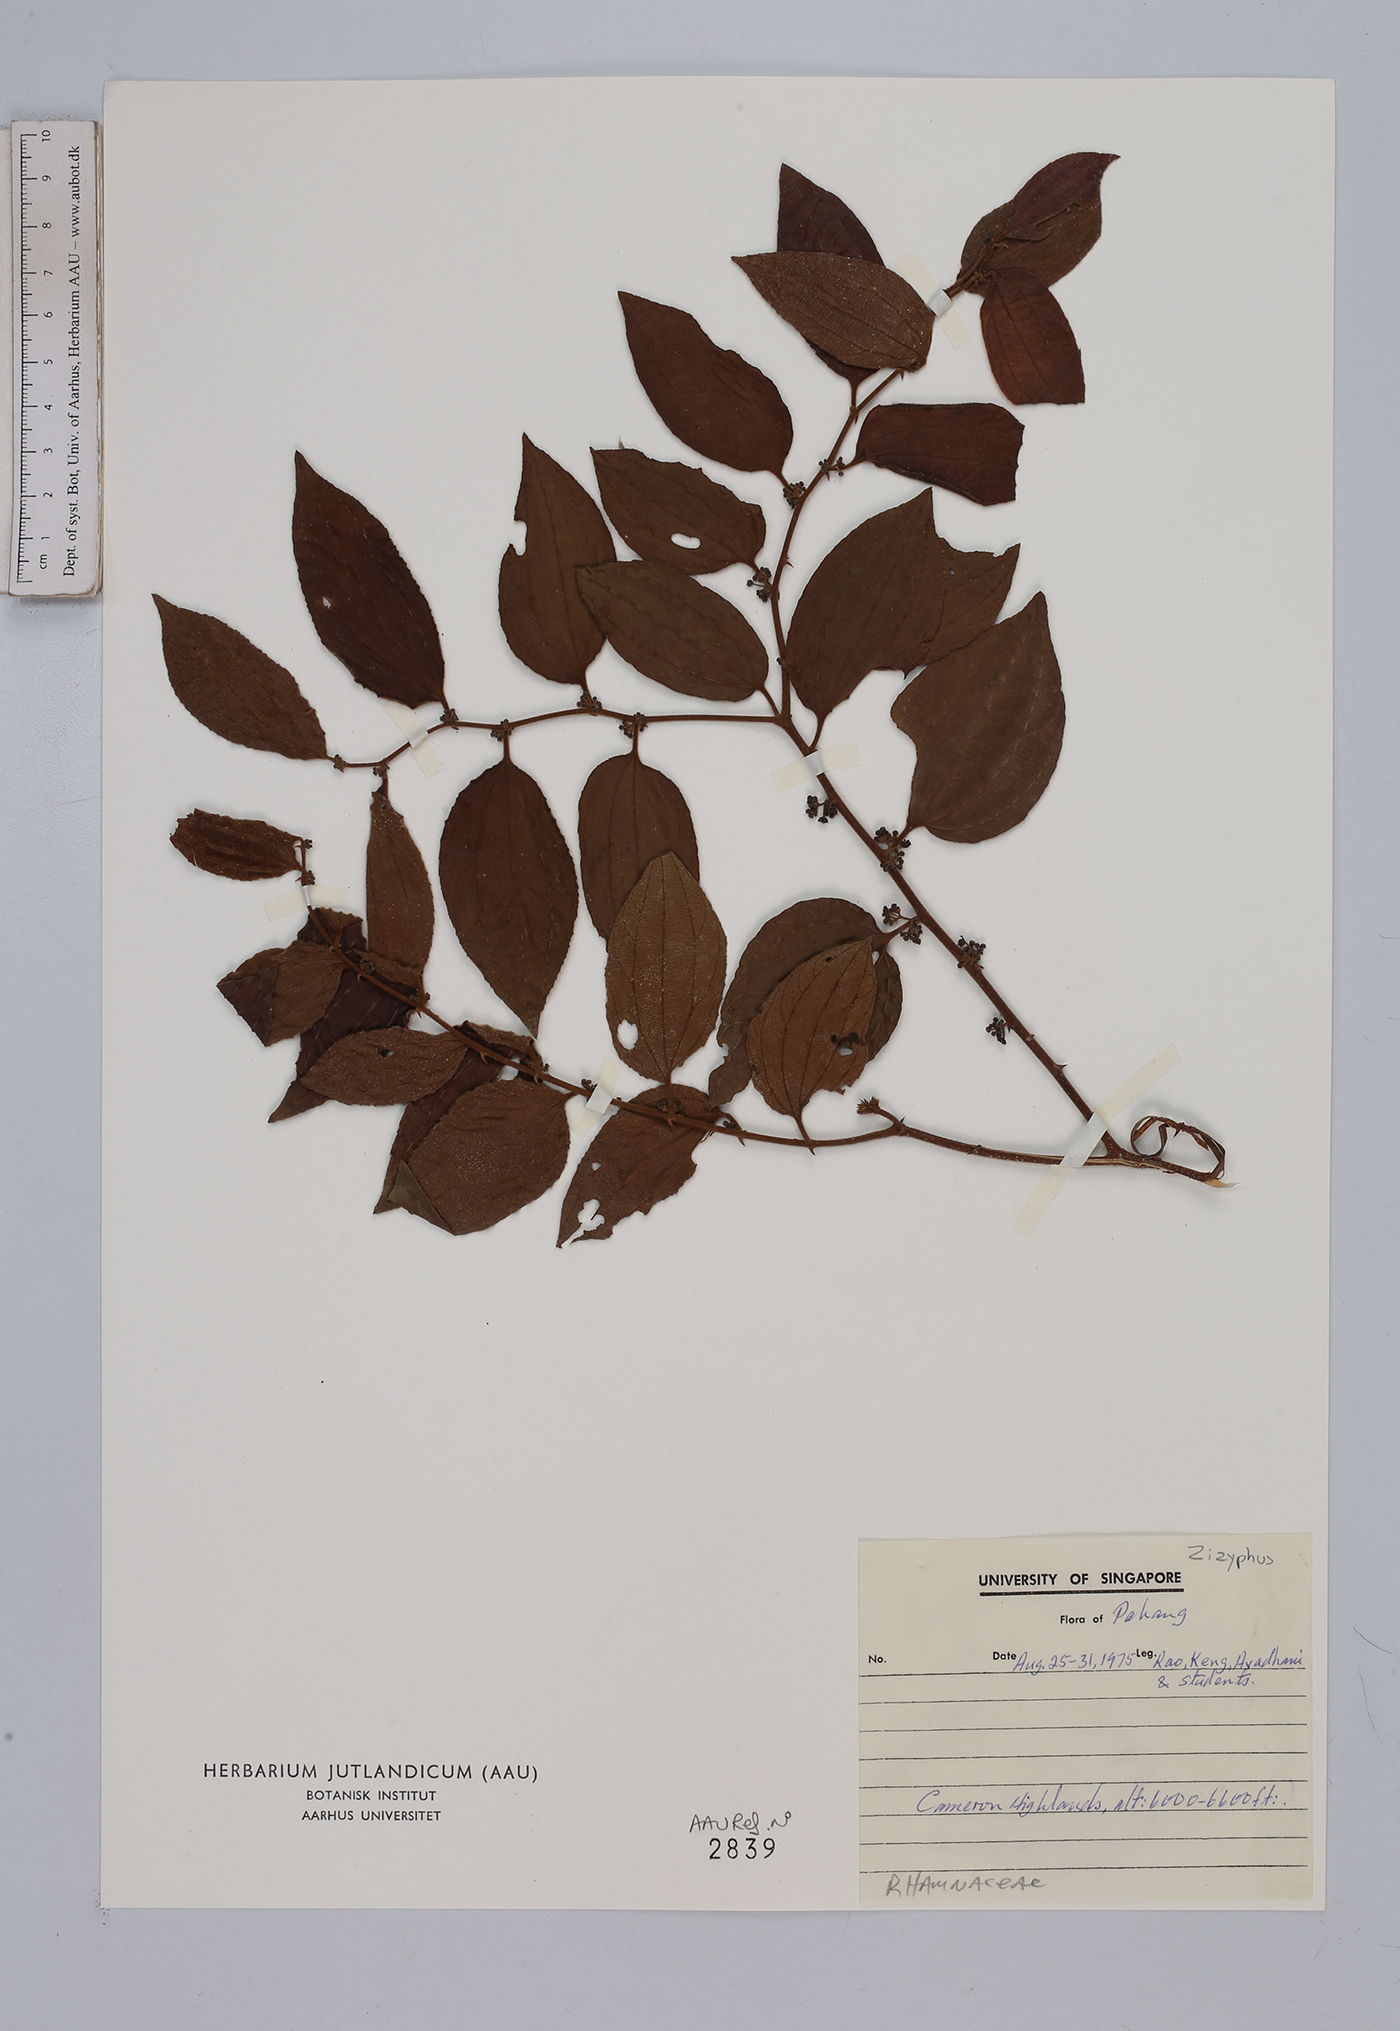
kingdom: Plantae
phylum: Tracheophyta
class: Magnoliopsida
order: Rosales
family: Rhamnaceae
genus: Ziziphus
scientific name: Ziziphus
